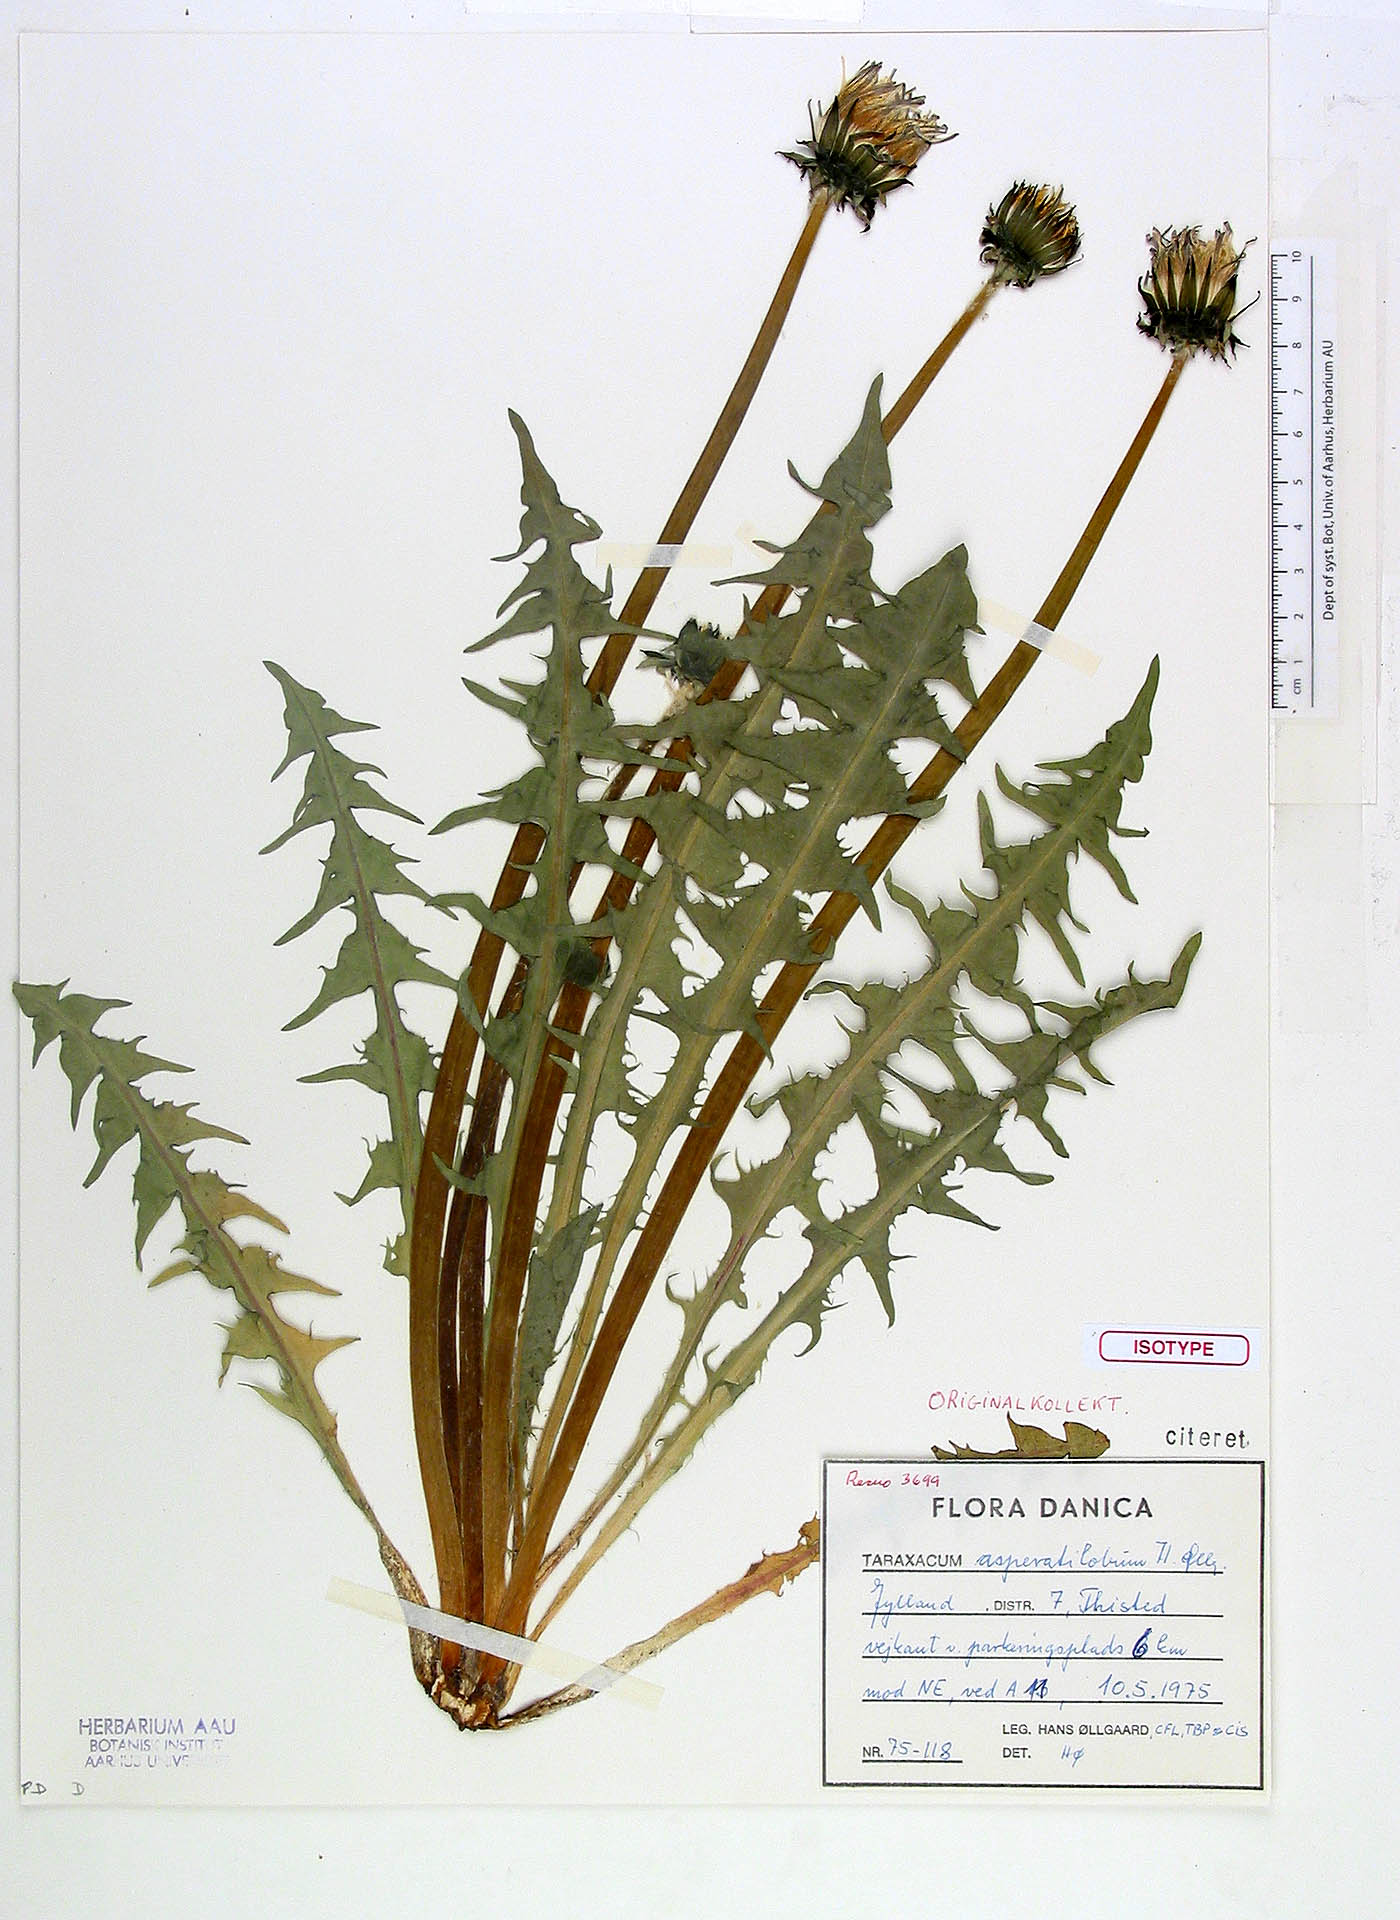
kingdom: Plantae
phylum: Tracheophyta
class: Magnoliopsida
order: Asterales
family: Asteraceae
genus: Taraxacum
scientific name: Taraxacum asperatilobum
